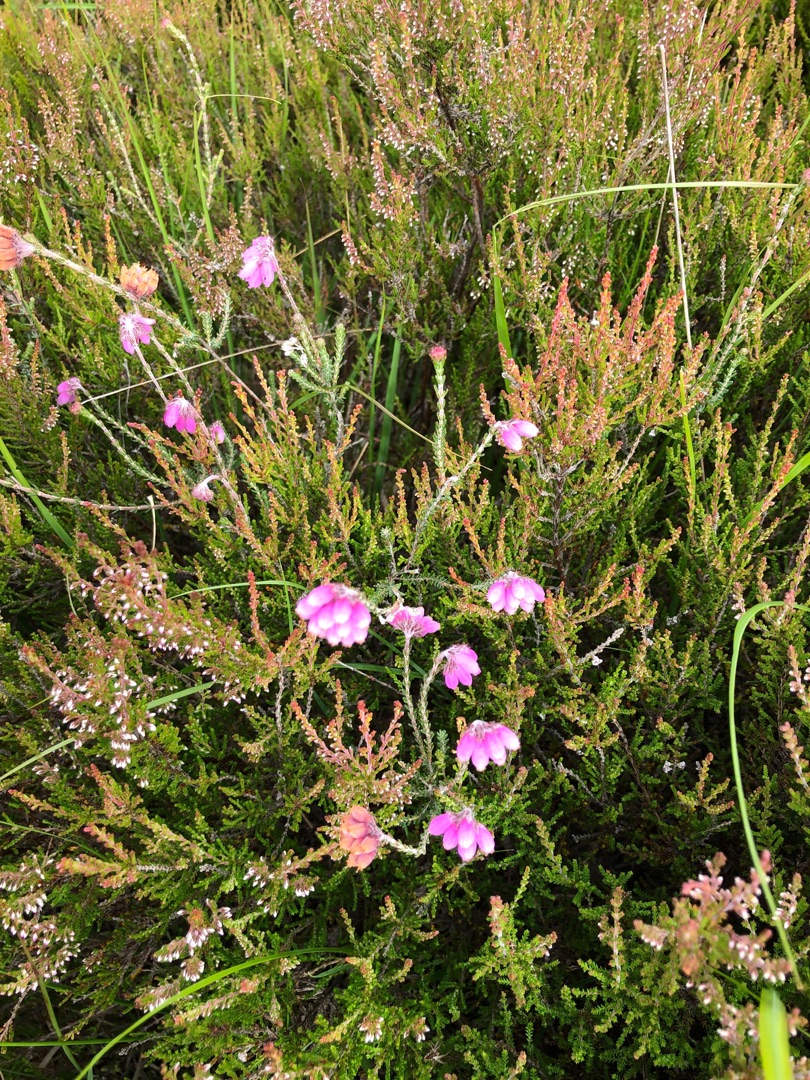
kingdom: Plantae
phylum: Tracheophyta
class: Magnoliopsida
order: Ericales
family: Ericaceae
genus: Erica
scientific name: Erica tetralix
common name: Klokkelyng
